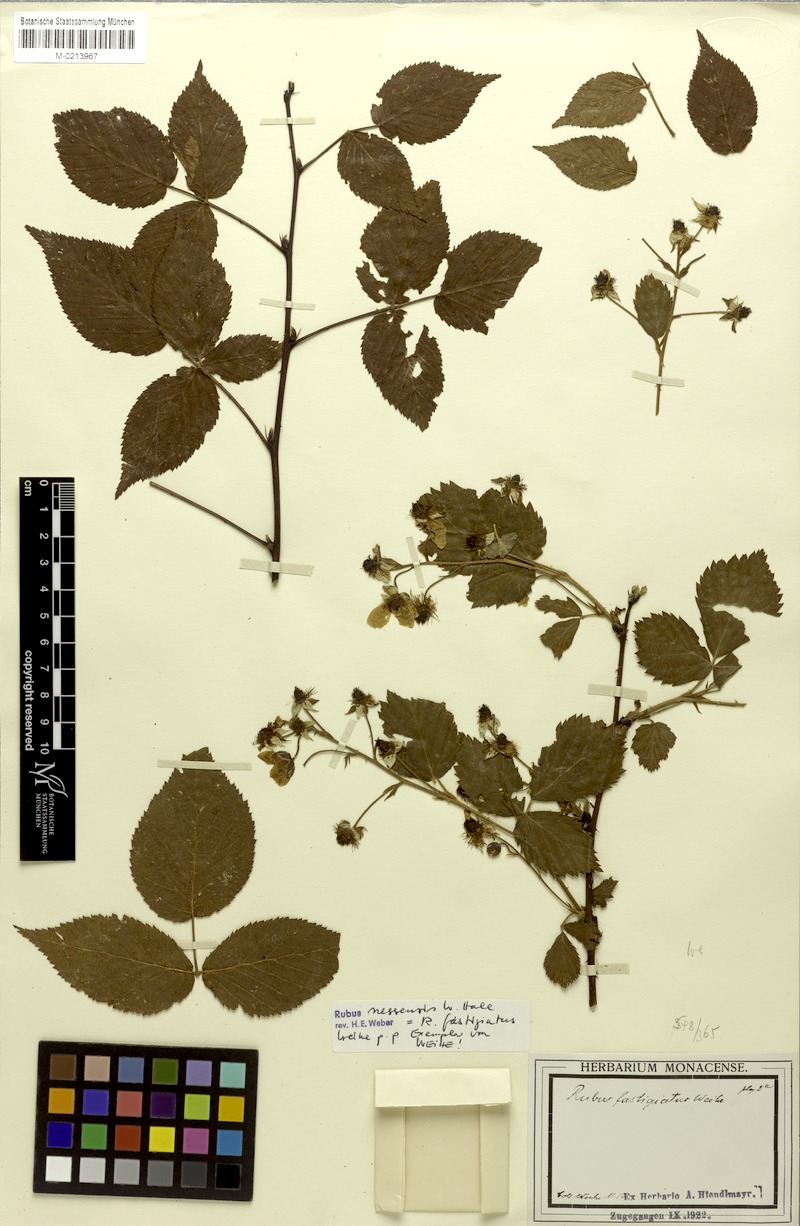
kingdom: Plantae
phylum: Tracheophyta
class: Magnoliopsida
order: Rosales
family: Rosaceae
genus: Rubus
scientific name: Rubus polonicus
